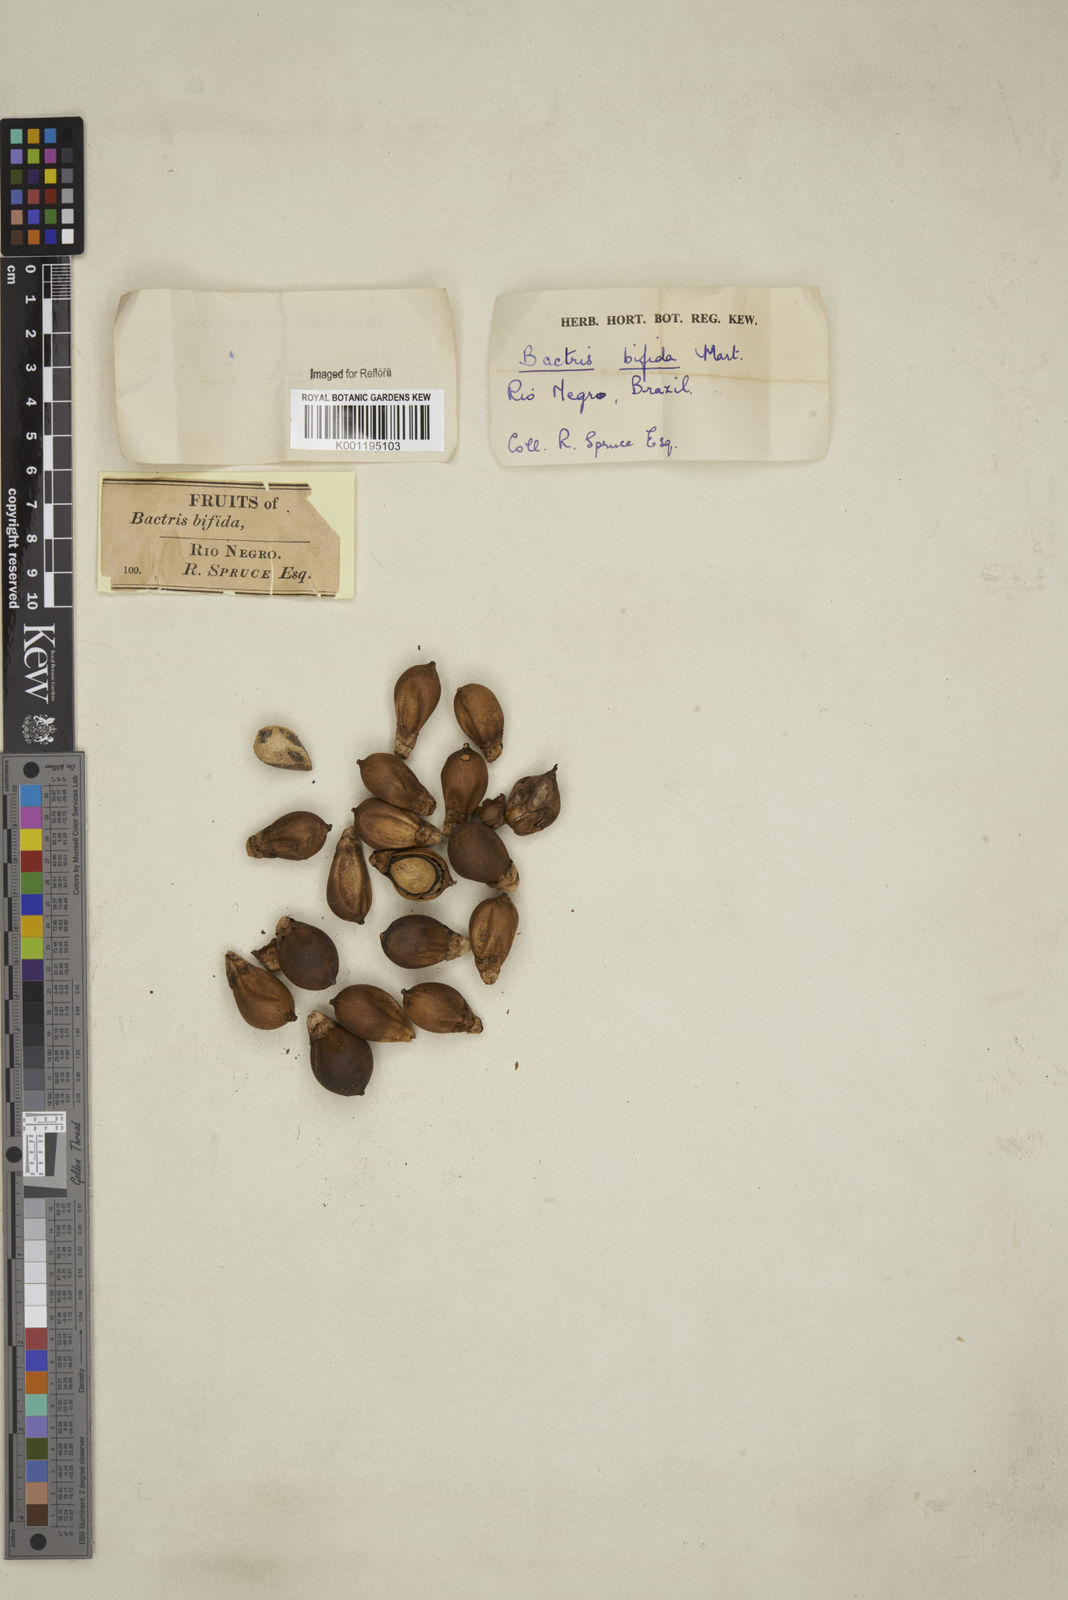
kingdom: Plantae
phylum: Tracheophyta
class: Liliopsida
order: Arecales
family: Arecaceae
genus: Bactris
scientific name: Bactris bifida
